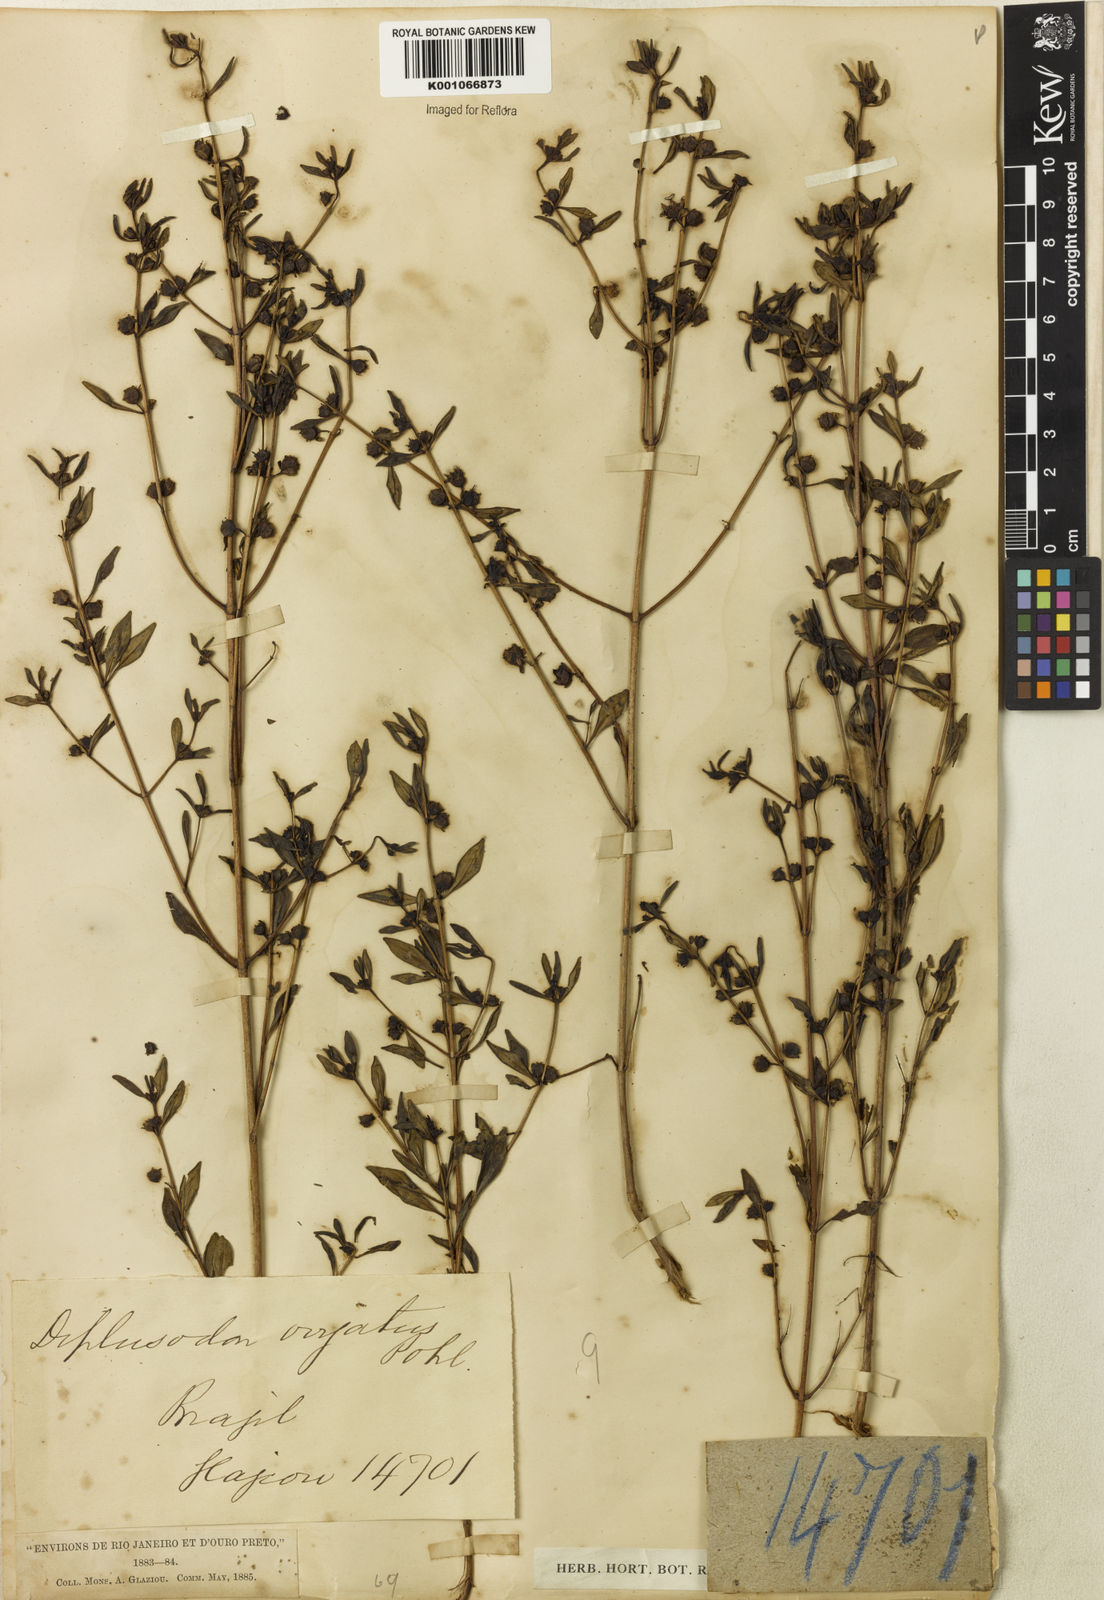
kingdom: Plantae
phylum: Tracheophyta
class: Magnoliopsida
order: Myrtales
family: Lythraceae
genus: Diplusodon
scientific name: Diplusodon virgatus
